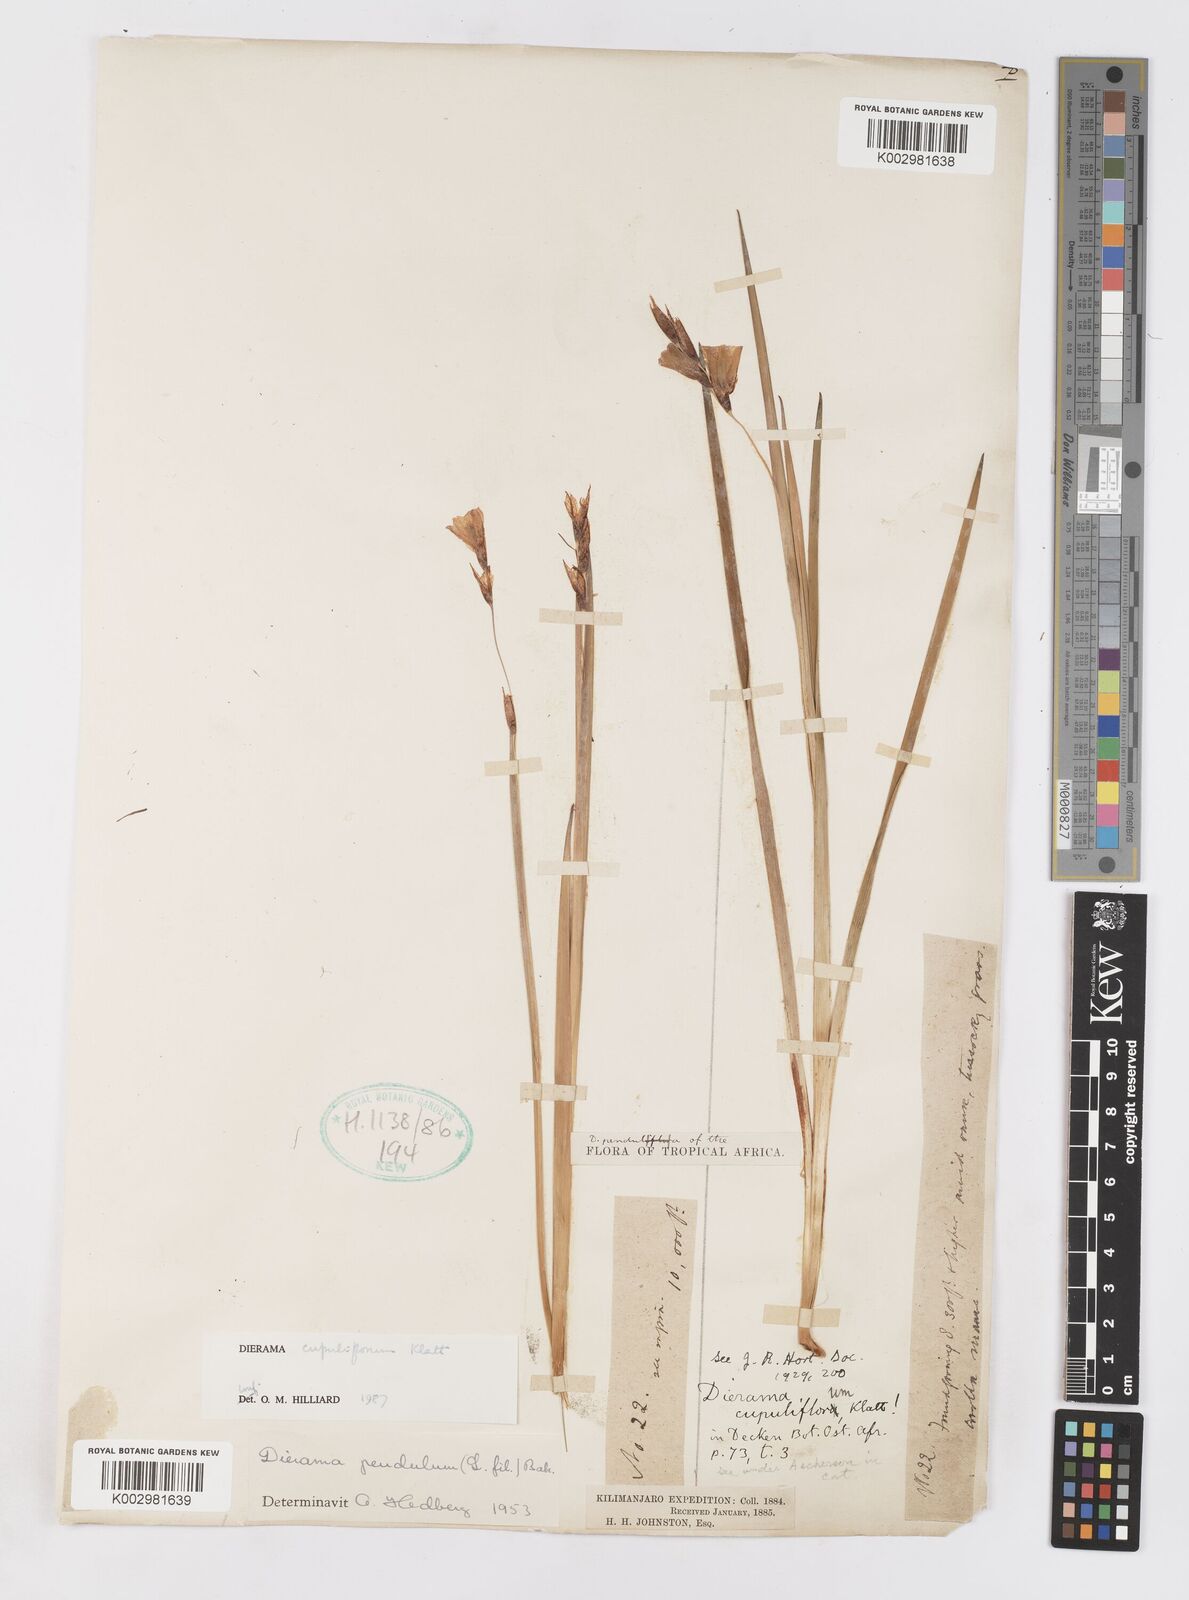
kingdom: Plantae
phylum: Tracheophyta
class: Liliopsida
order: Asparagales
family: Iridaceae
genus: Dierama
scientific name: Dierama cupuliflorum
